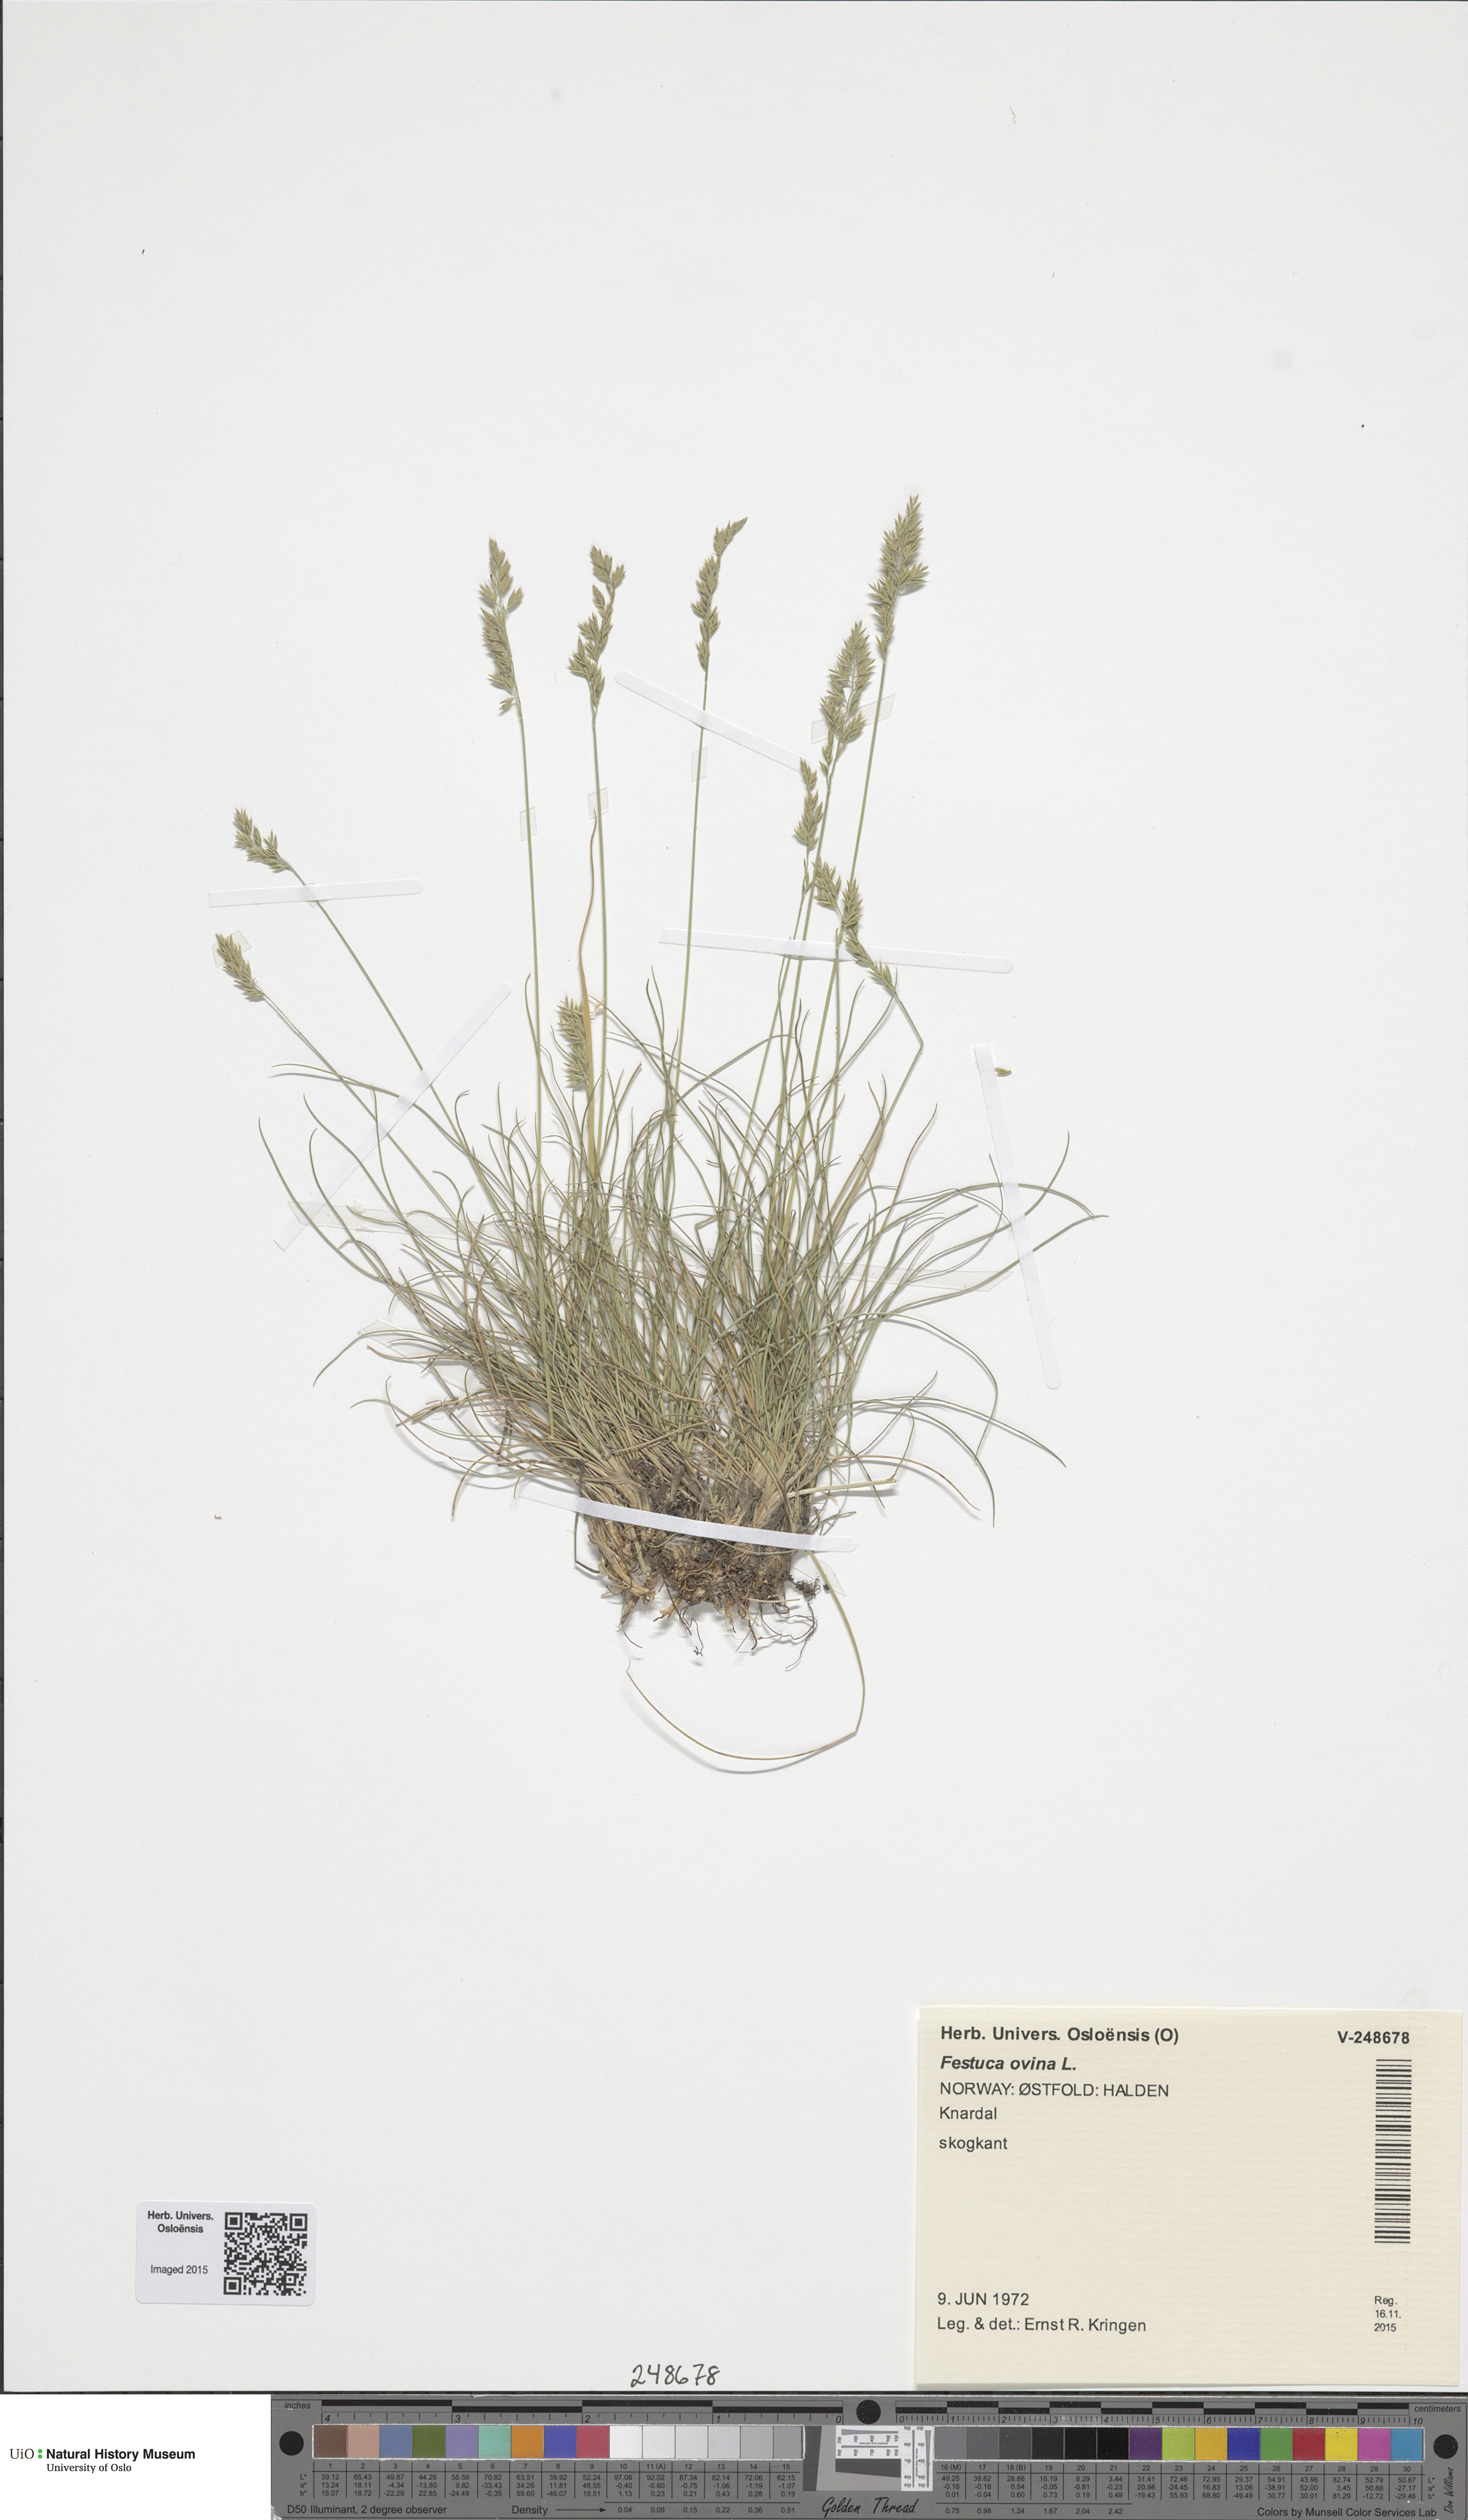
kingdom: Plantae
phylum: Tracheophyta
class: Liliopsida
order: Poales
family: Poaceae
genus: Festuca
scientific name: Festuca ovina
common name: Sheep fescue
